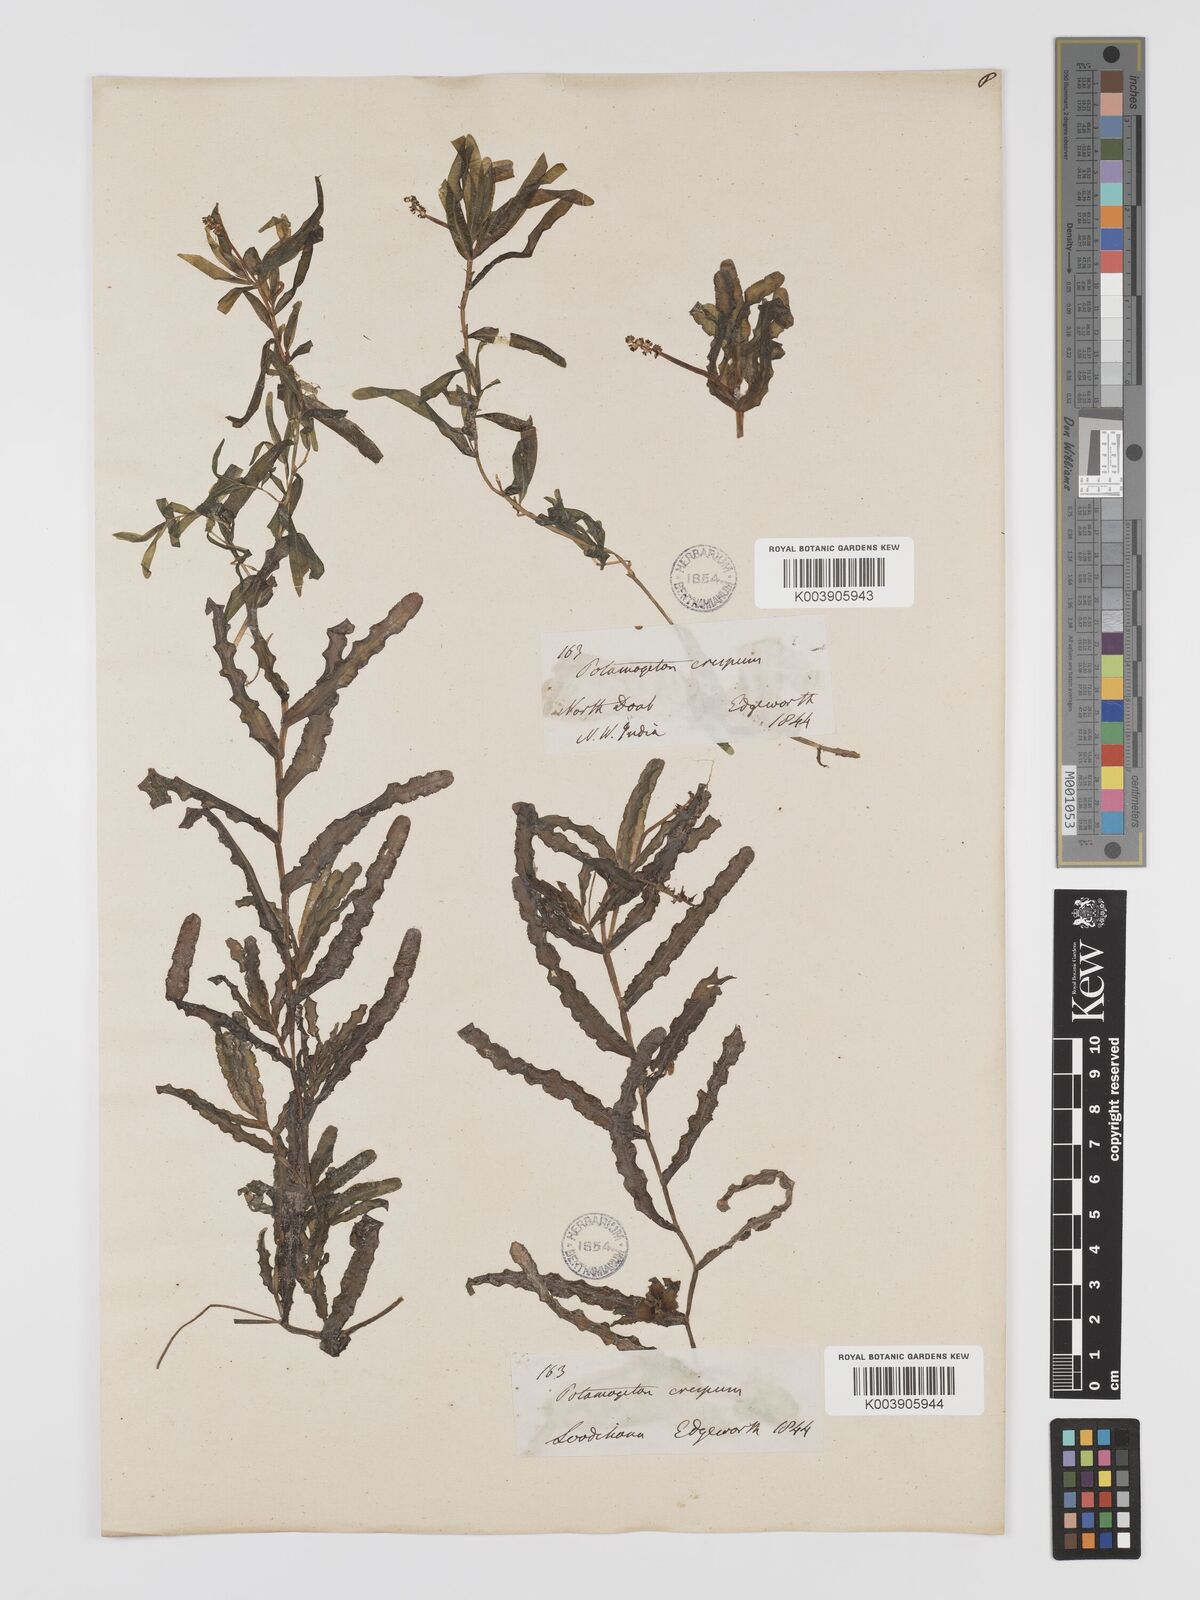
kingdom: Plantae
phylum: Tracheophyta
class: Liliopsida
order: Alismatales
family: Potamogetonaceae
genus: Potamogeton
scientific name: Potamogeton crispus
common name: Curled pondweed
